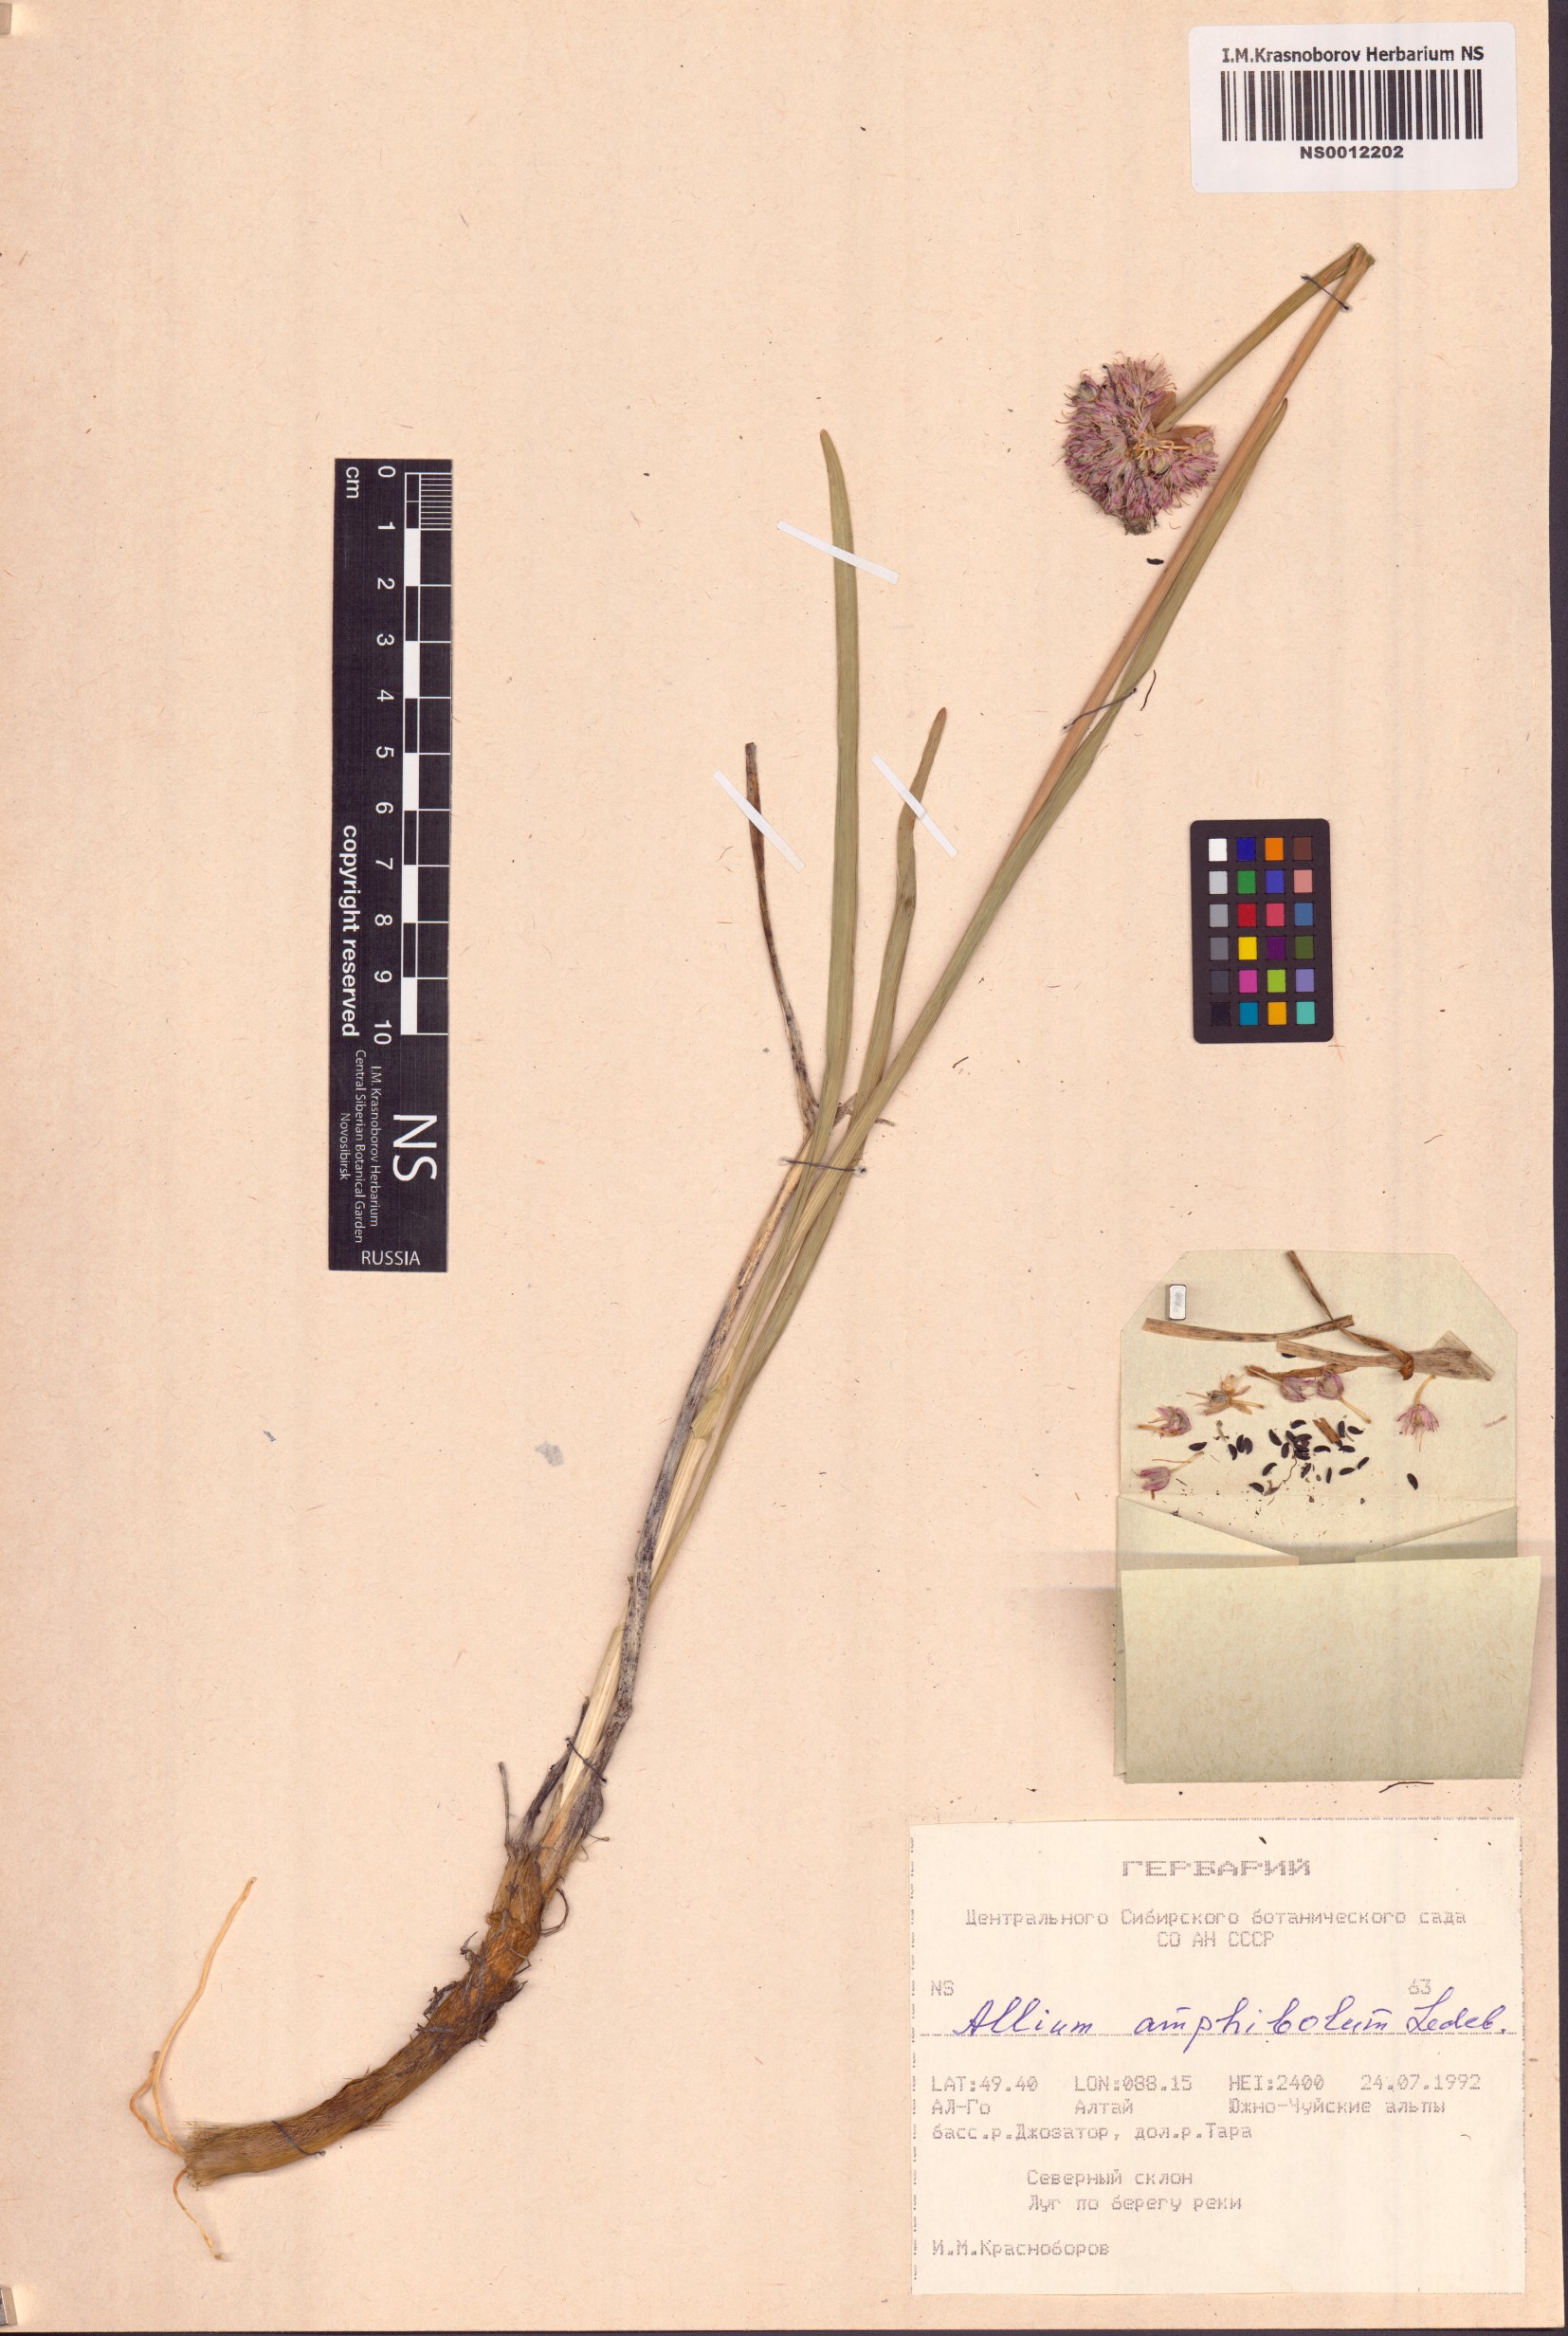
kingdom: Plantae
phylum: Tracheophyta
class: Liliopsida
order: Asparagales
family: Amaryllidaceae
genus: Allium
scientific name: Allium amphibolum
